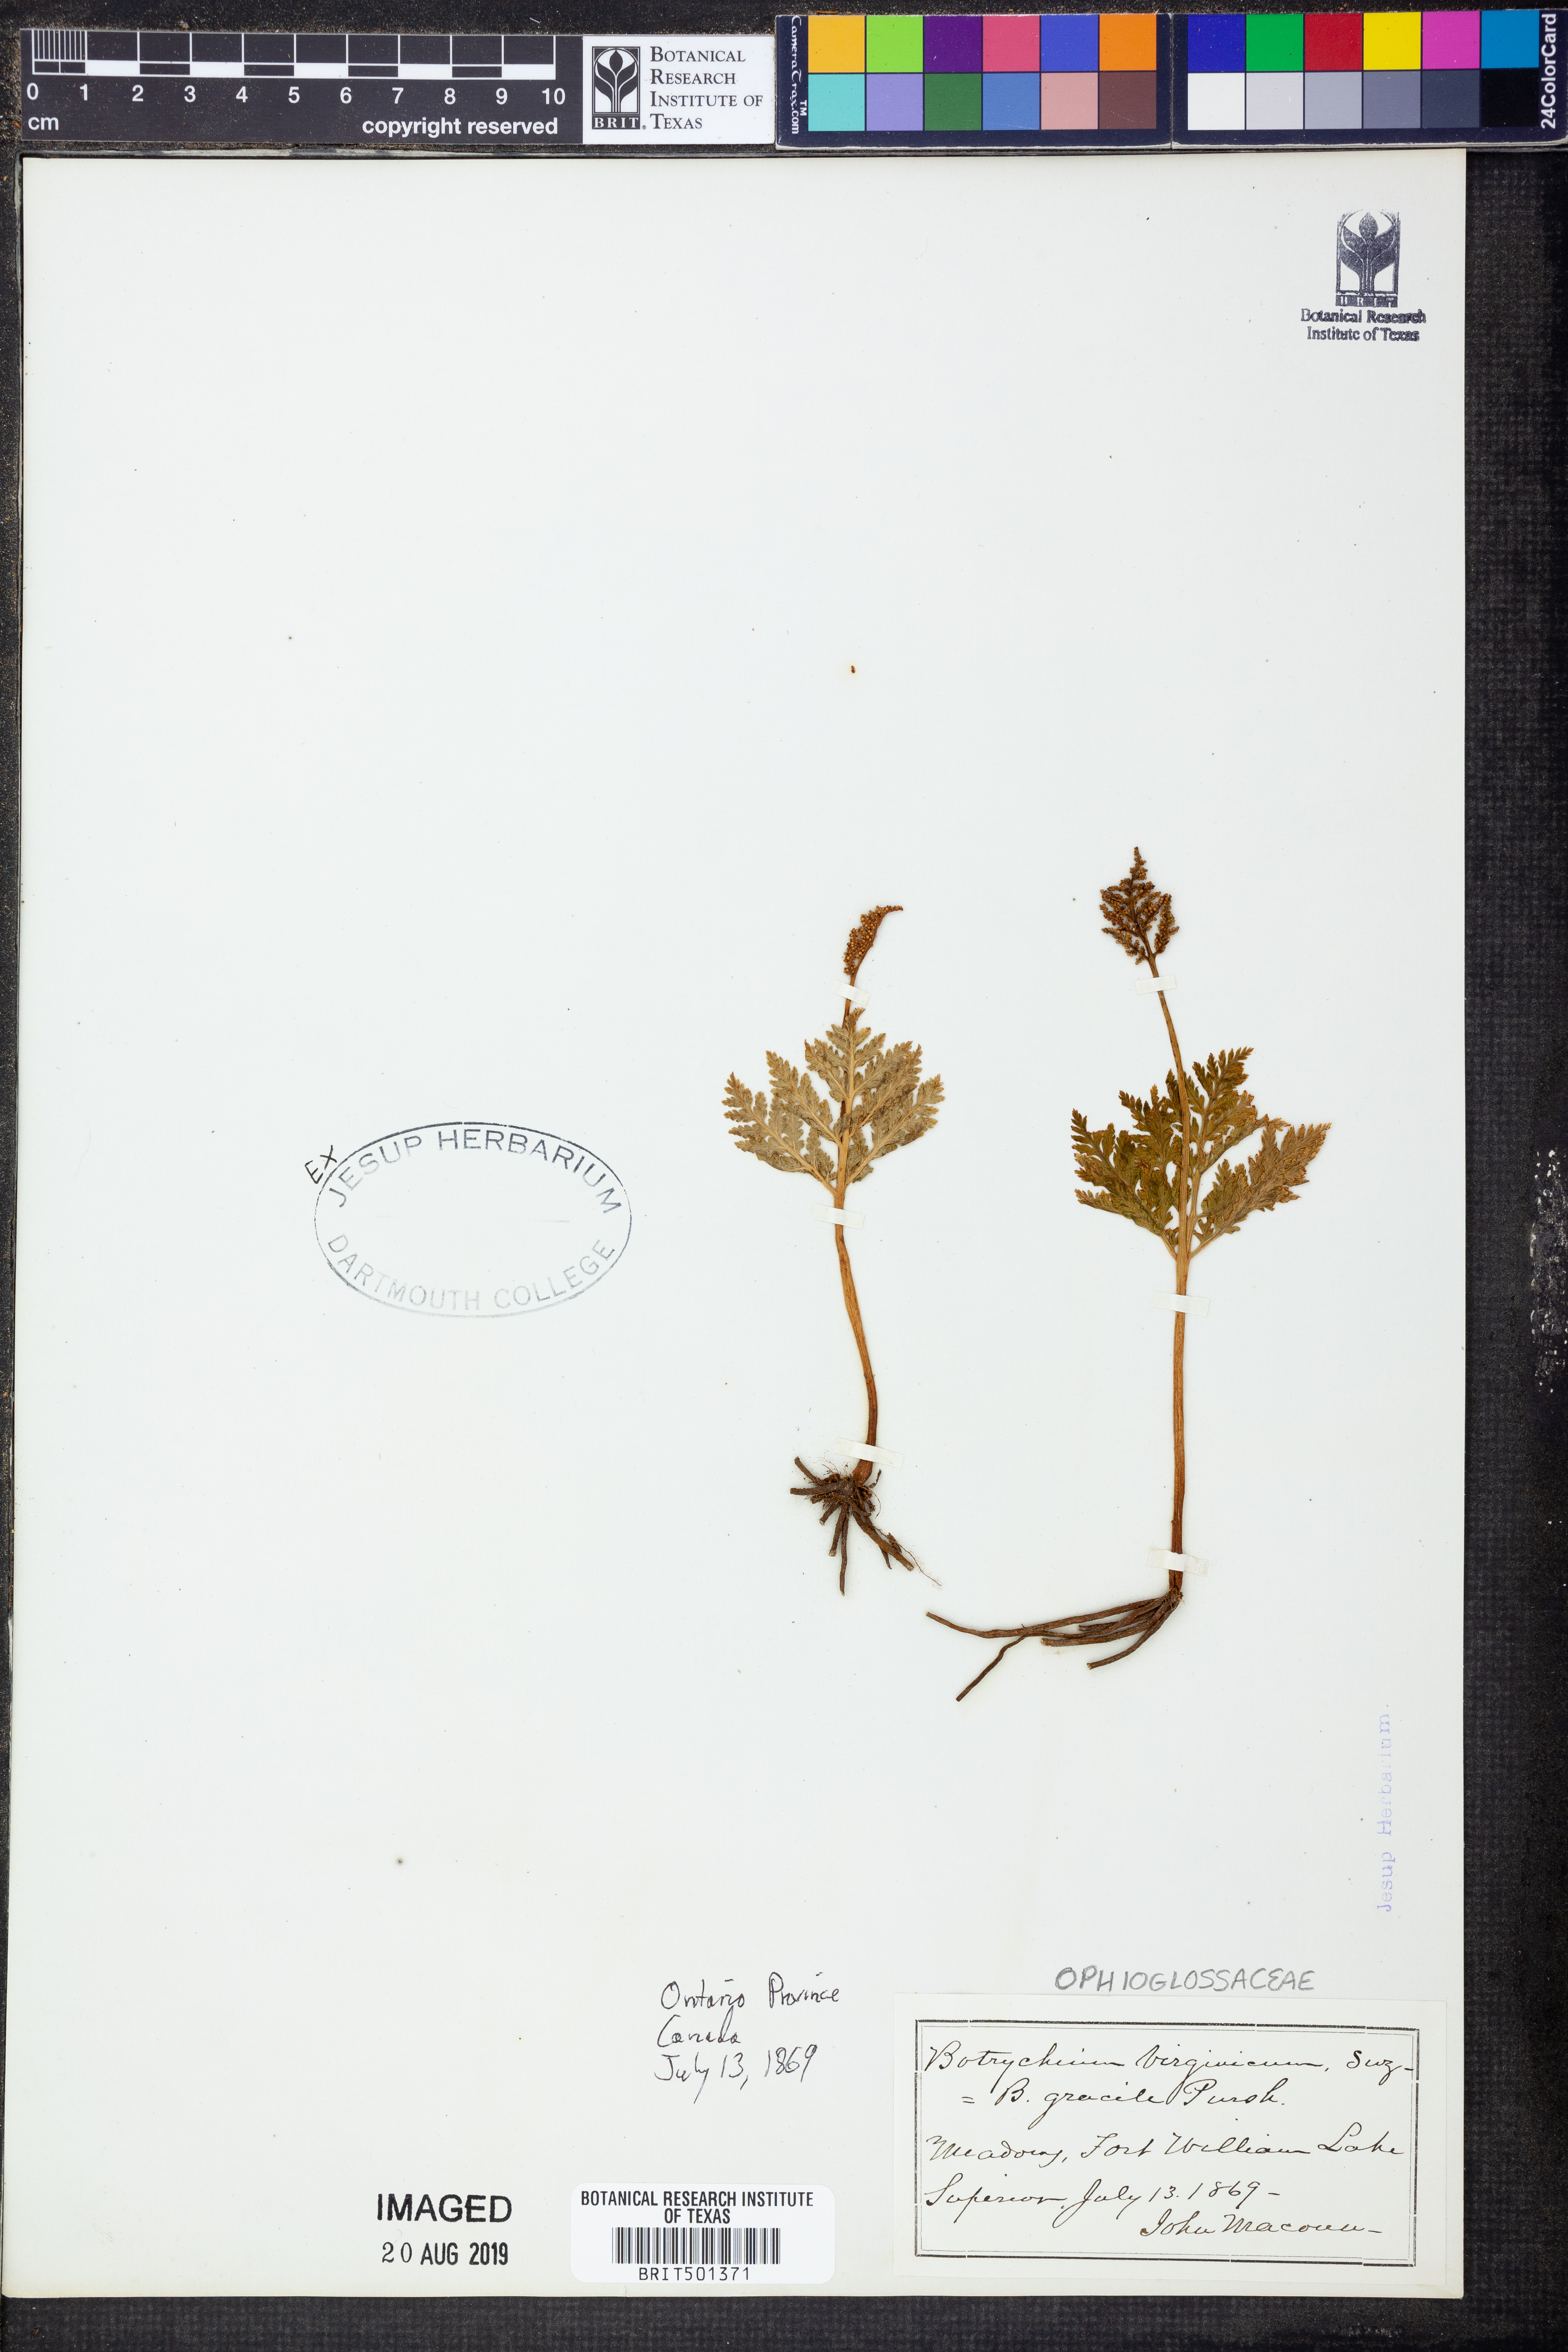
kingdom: Plantae
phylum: Tracheophyta
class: Polypodiopsida
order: Ophioglossales
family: Ophioglossaceae
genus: Botrypus
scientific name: Botrypus virginianus
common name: Common grapefern
